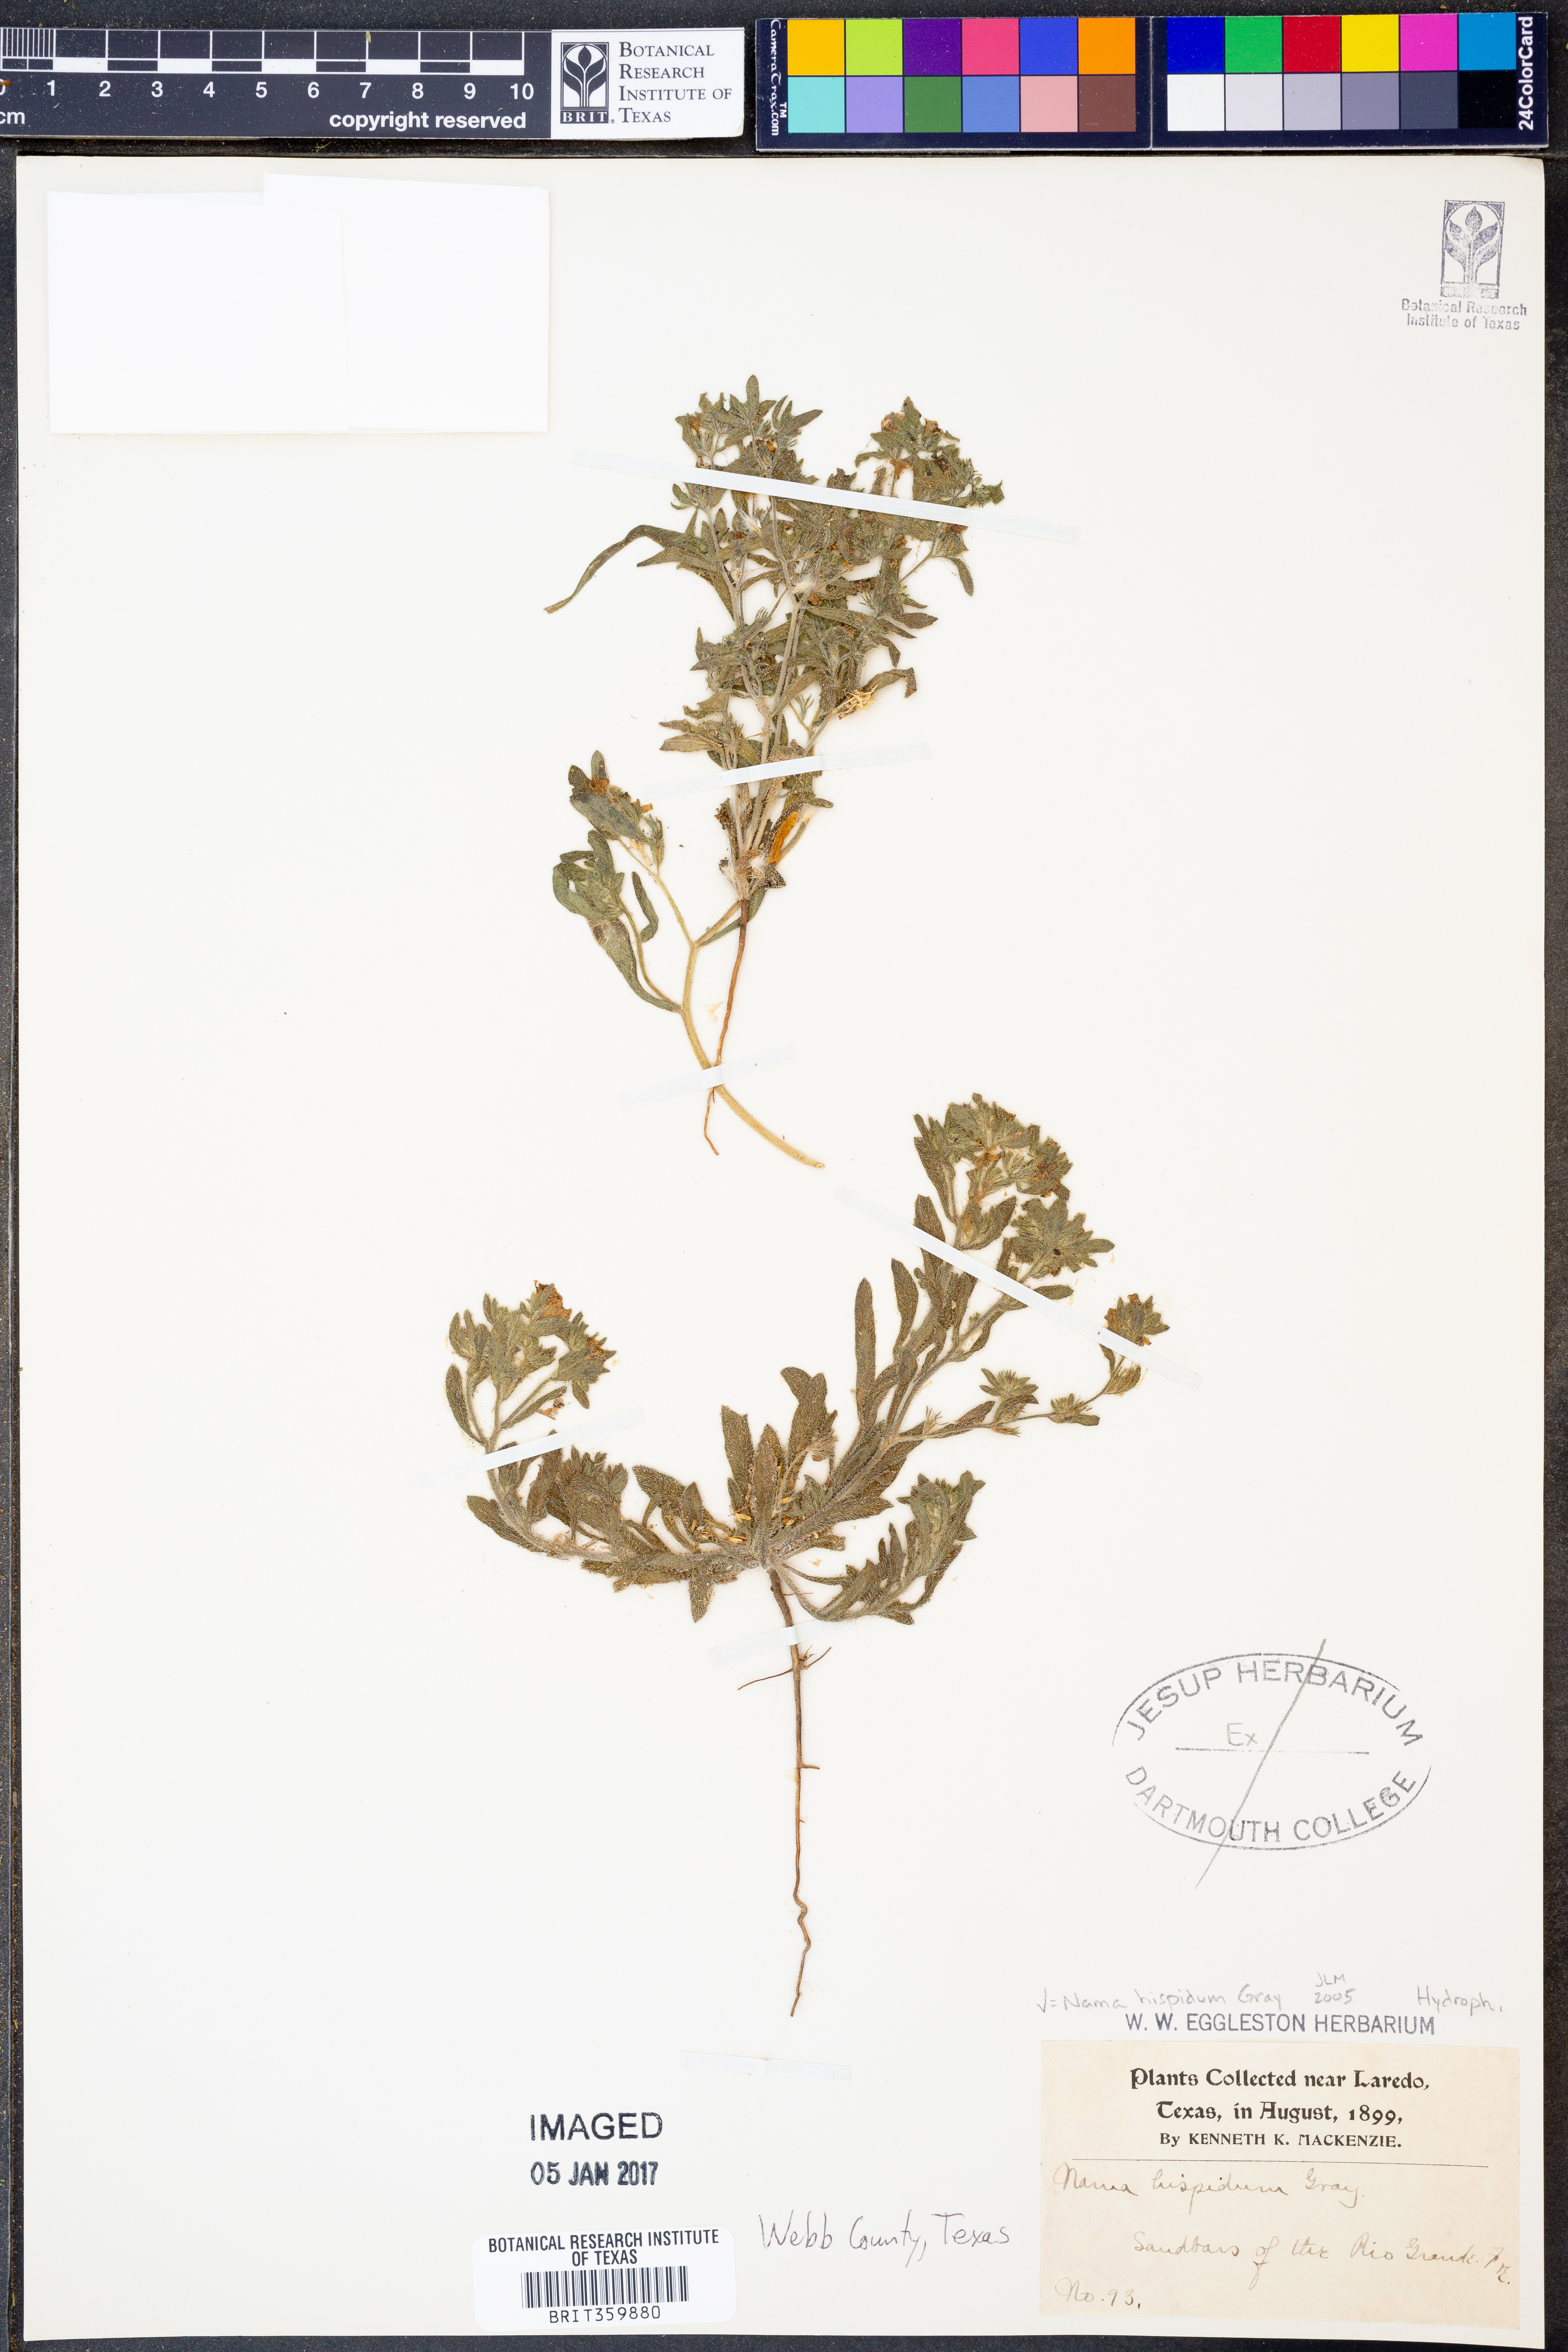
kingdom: Plantae
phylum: Tracheophyta
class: Magnoliopsida
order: Boraginales
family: Namaceae
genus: Nama
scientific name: Nama hispida
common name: Bristly nama
